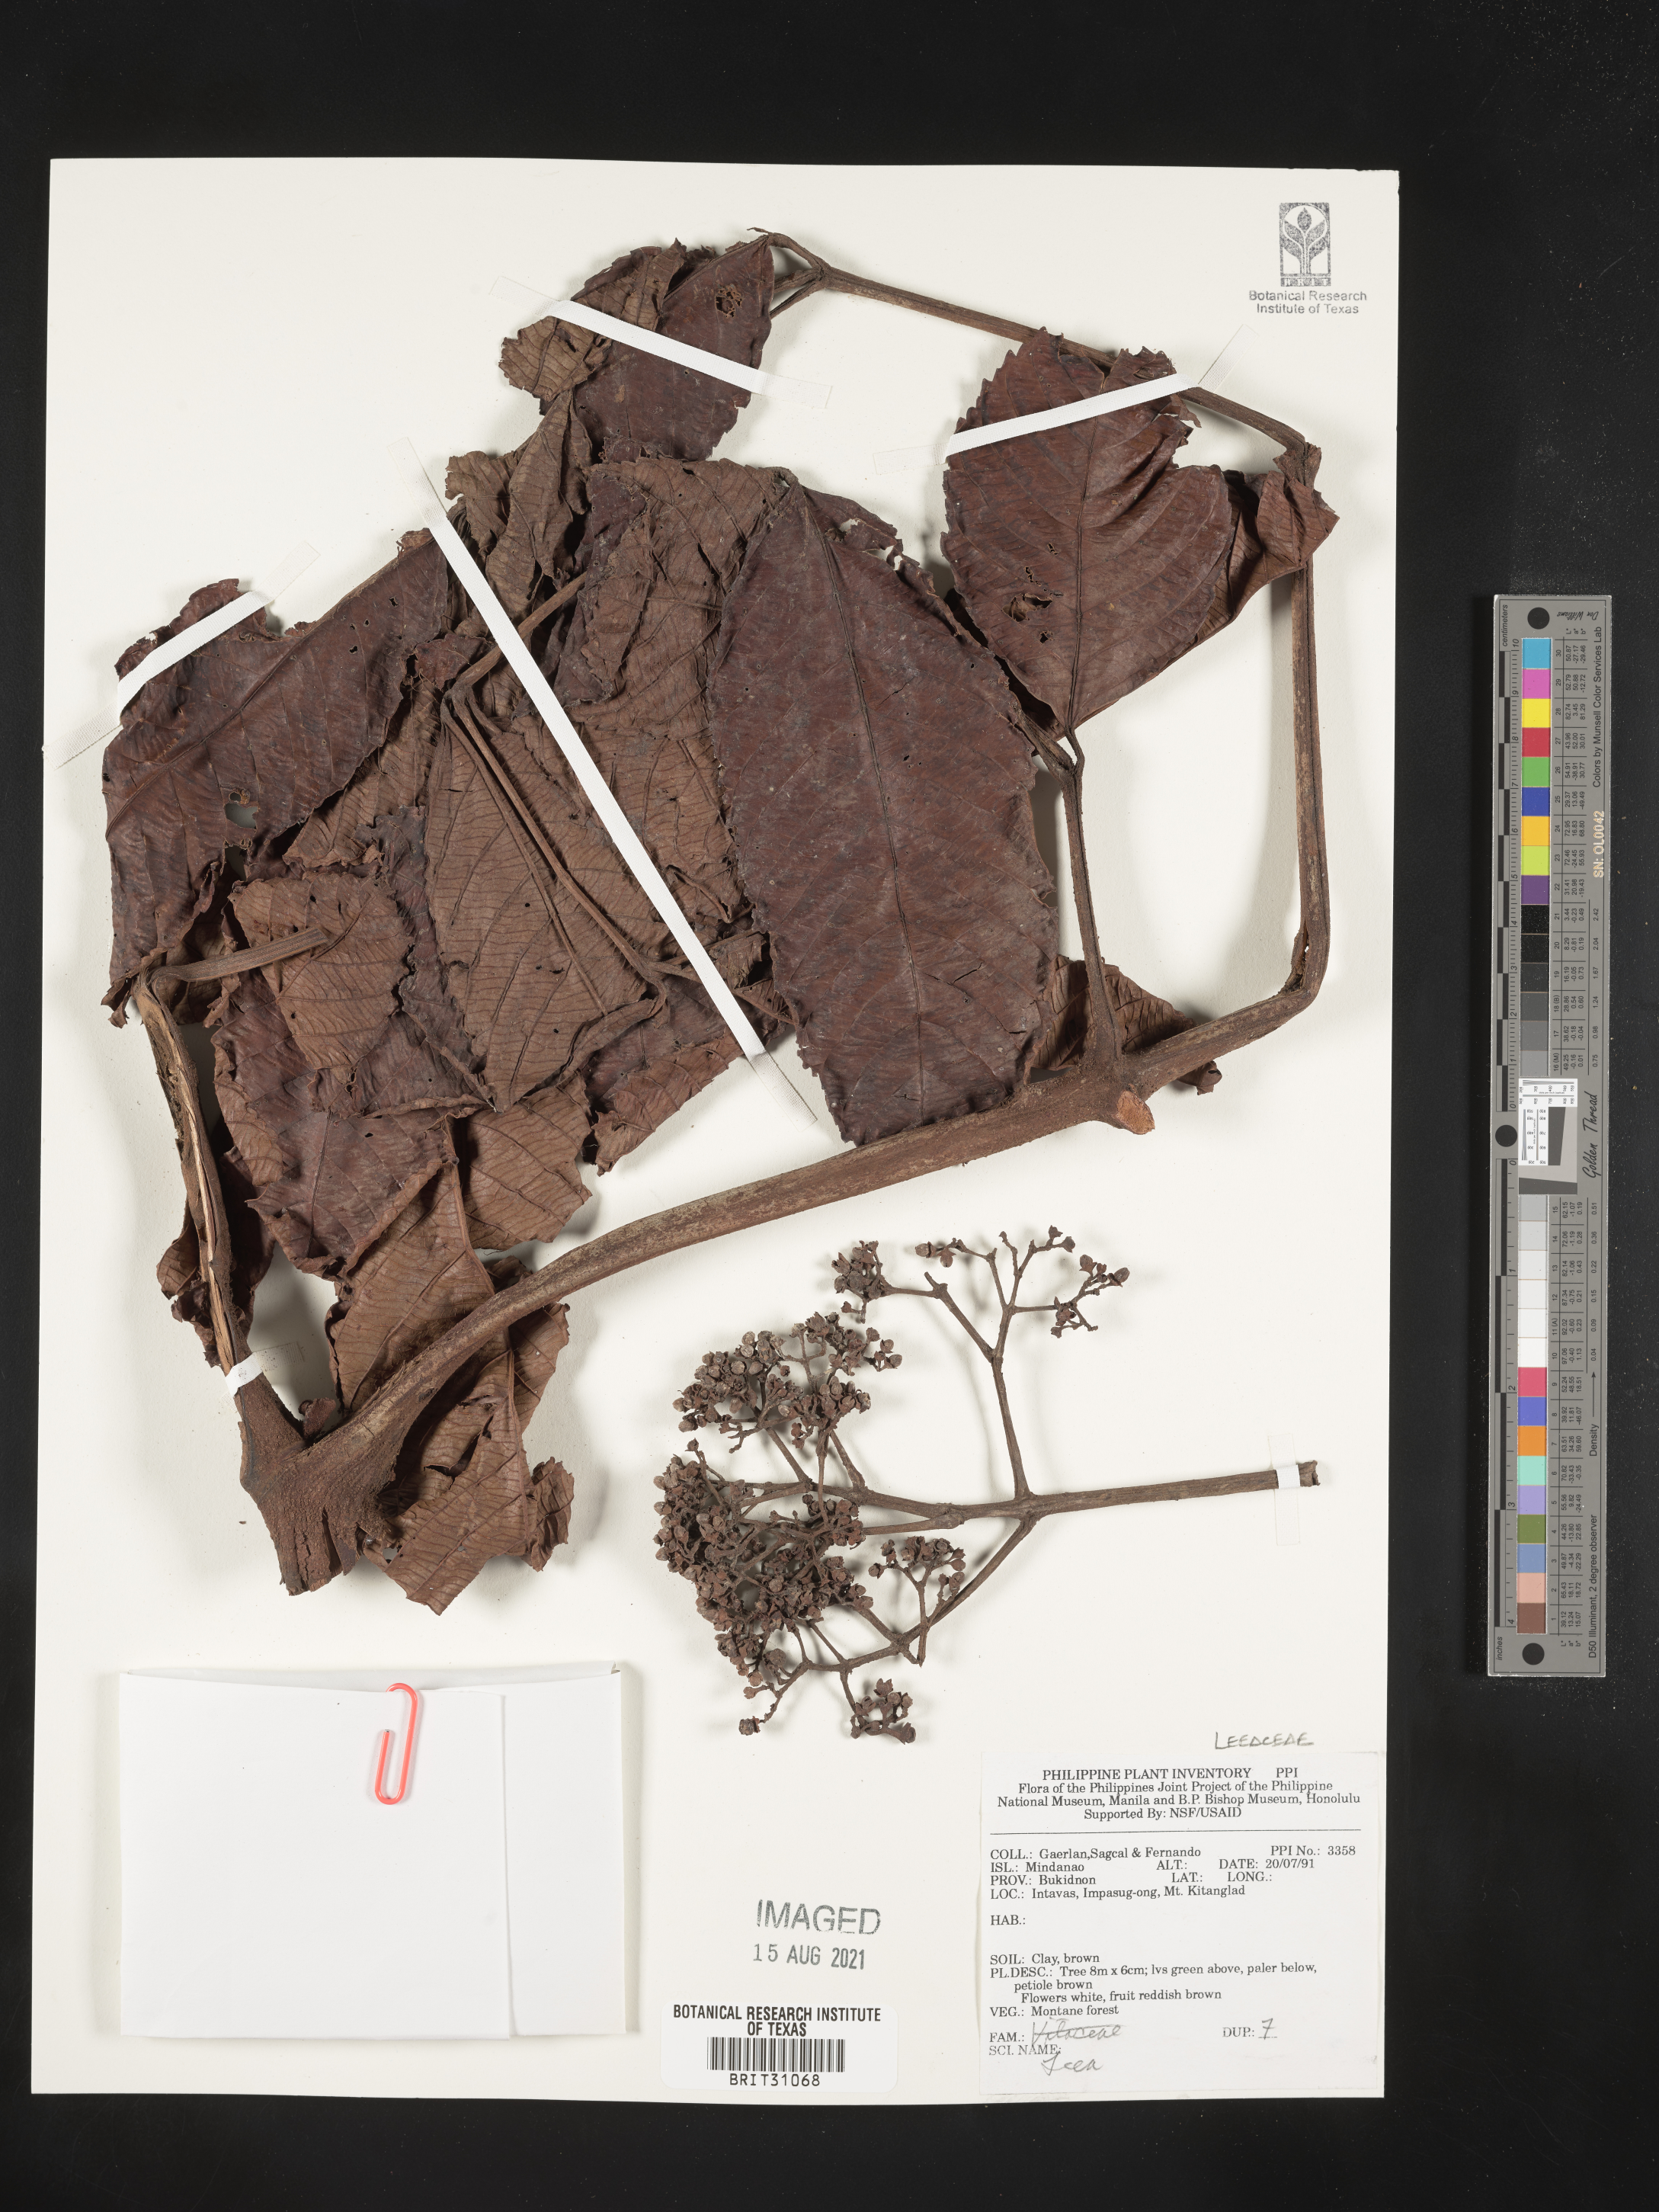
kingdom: Plantae
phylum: Tracheophyta
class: Magnoliopsida
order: Vitales
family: Vitaceae
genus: Leea
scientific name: Leea
